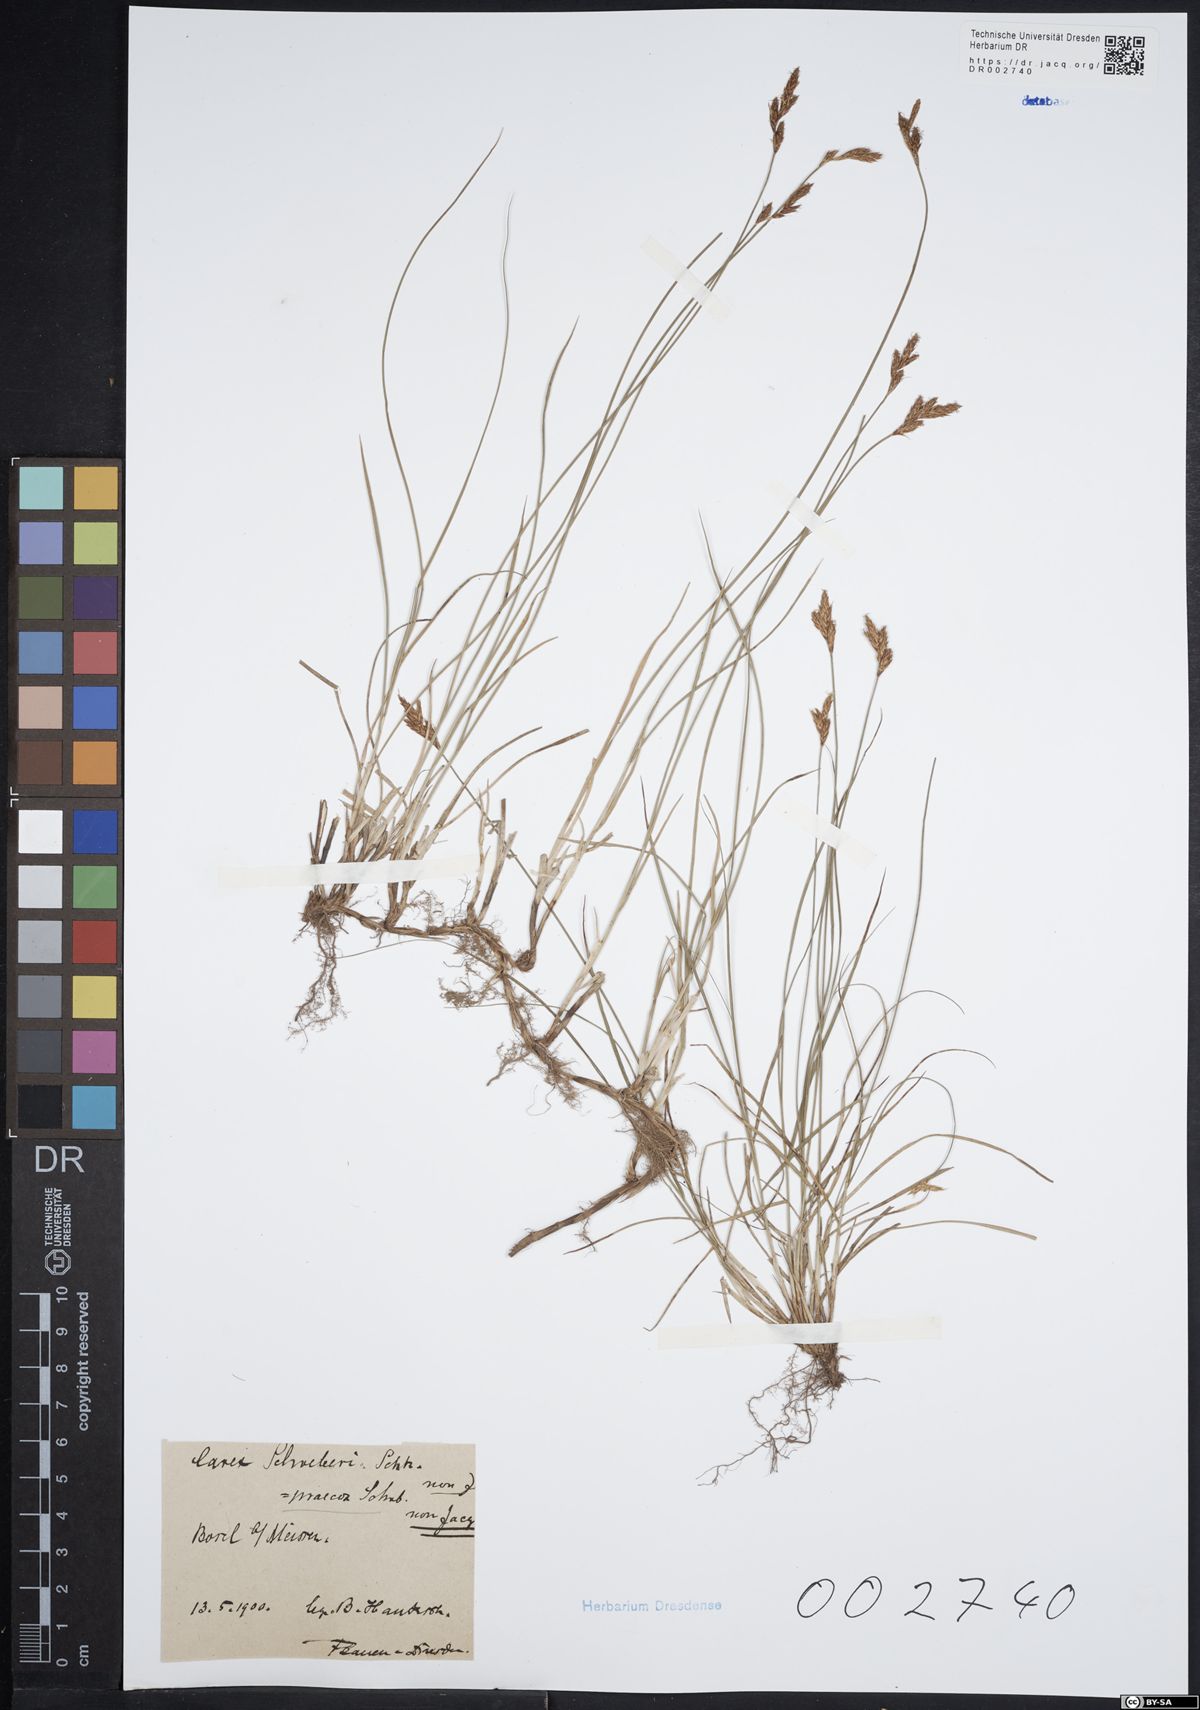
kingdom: Plantae
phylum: Tracheophyta
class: Liliopsida
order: Poales
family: Cyperaceae
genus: Carex
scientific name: Carex caryophyllea
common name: Spring sedge
